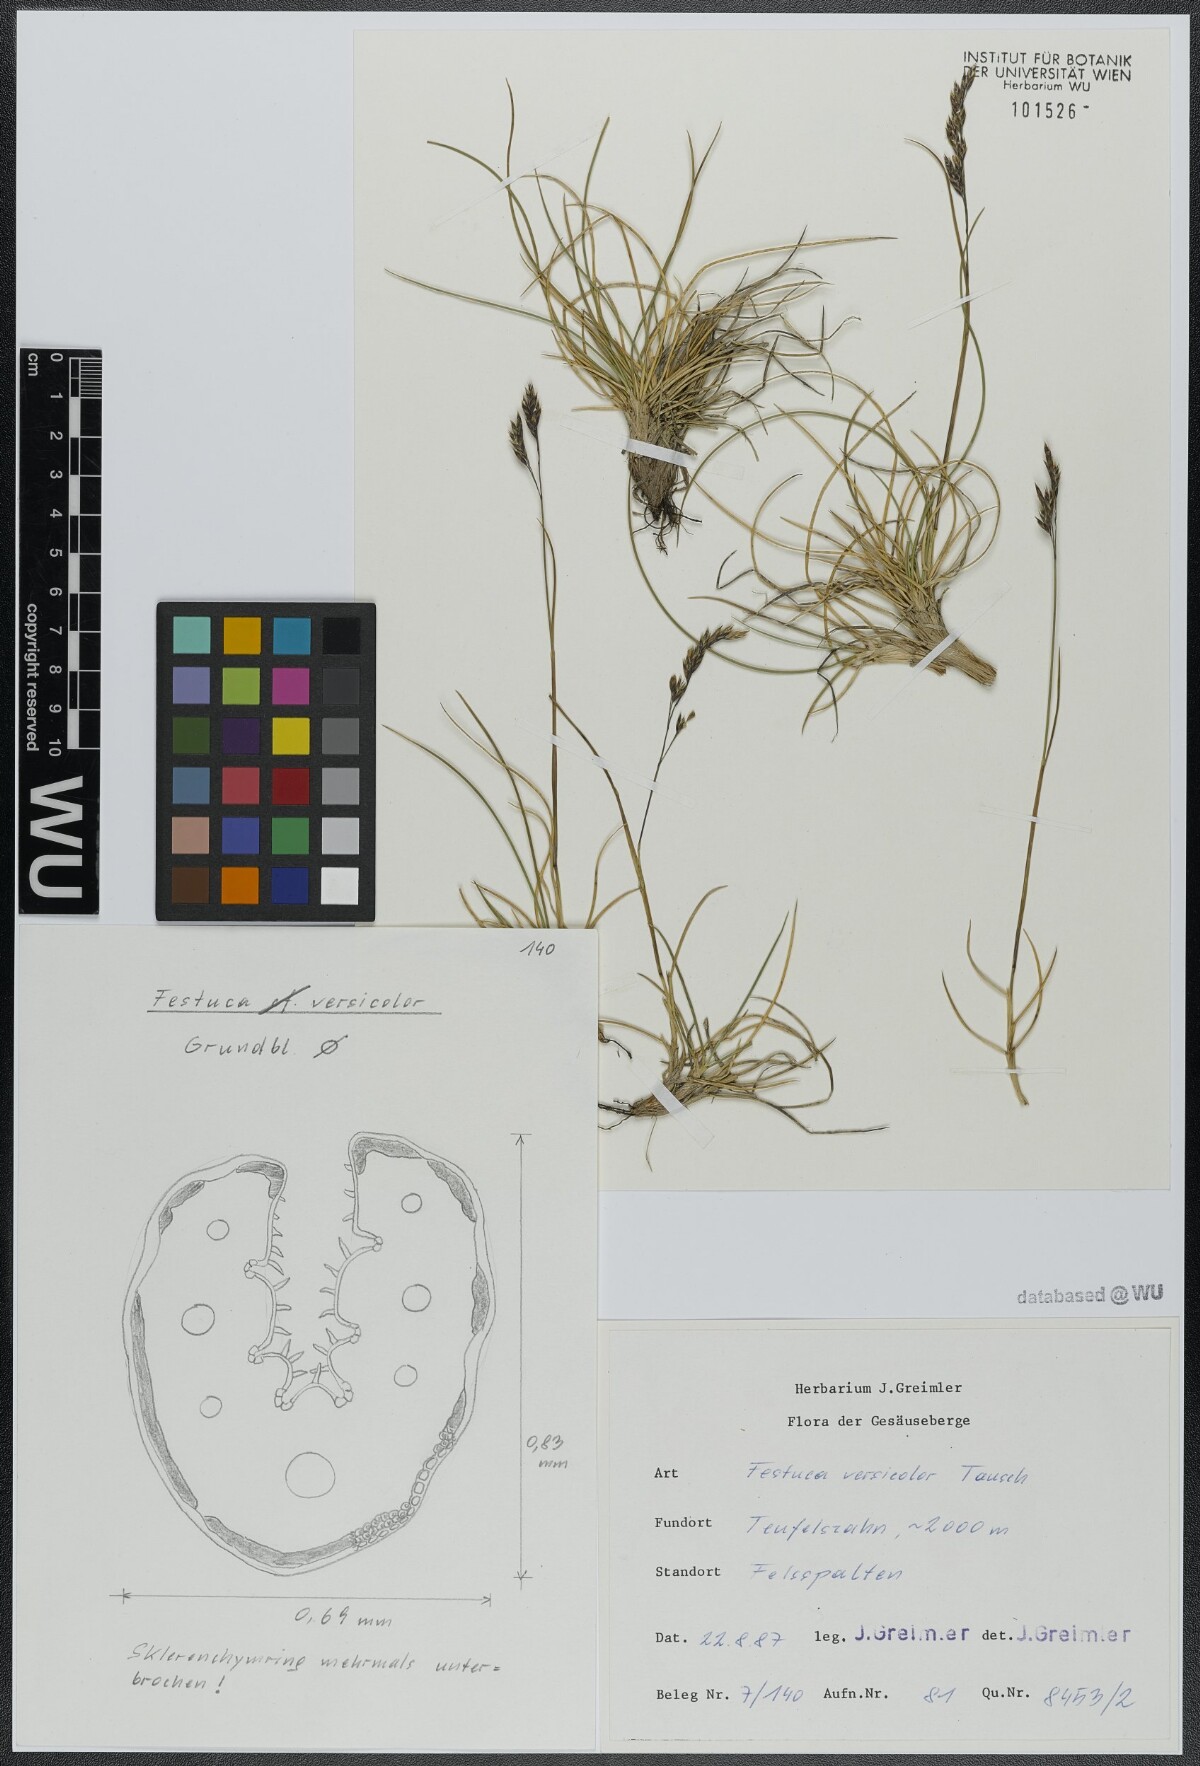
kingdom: Plantae
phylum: Tracheophyta
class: Liliopsida
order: Poales
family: Poaceae
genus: Festuca
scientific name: Festuca versicolor
